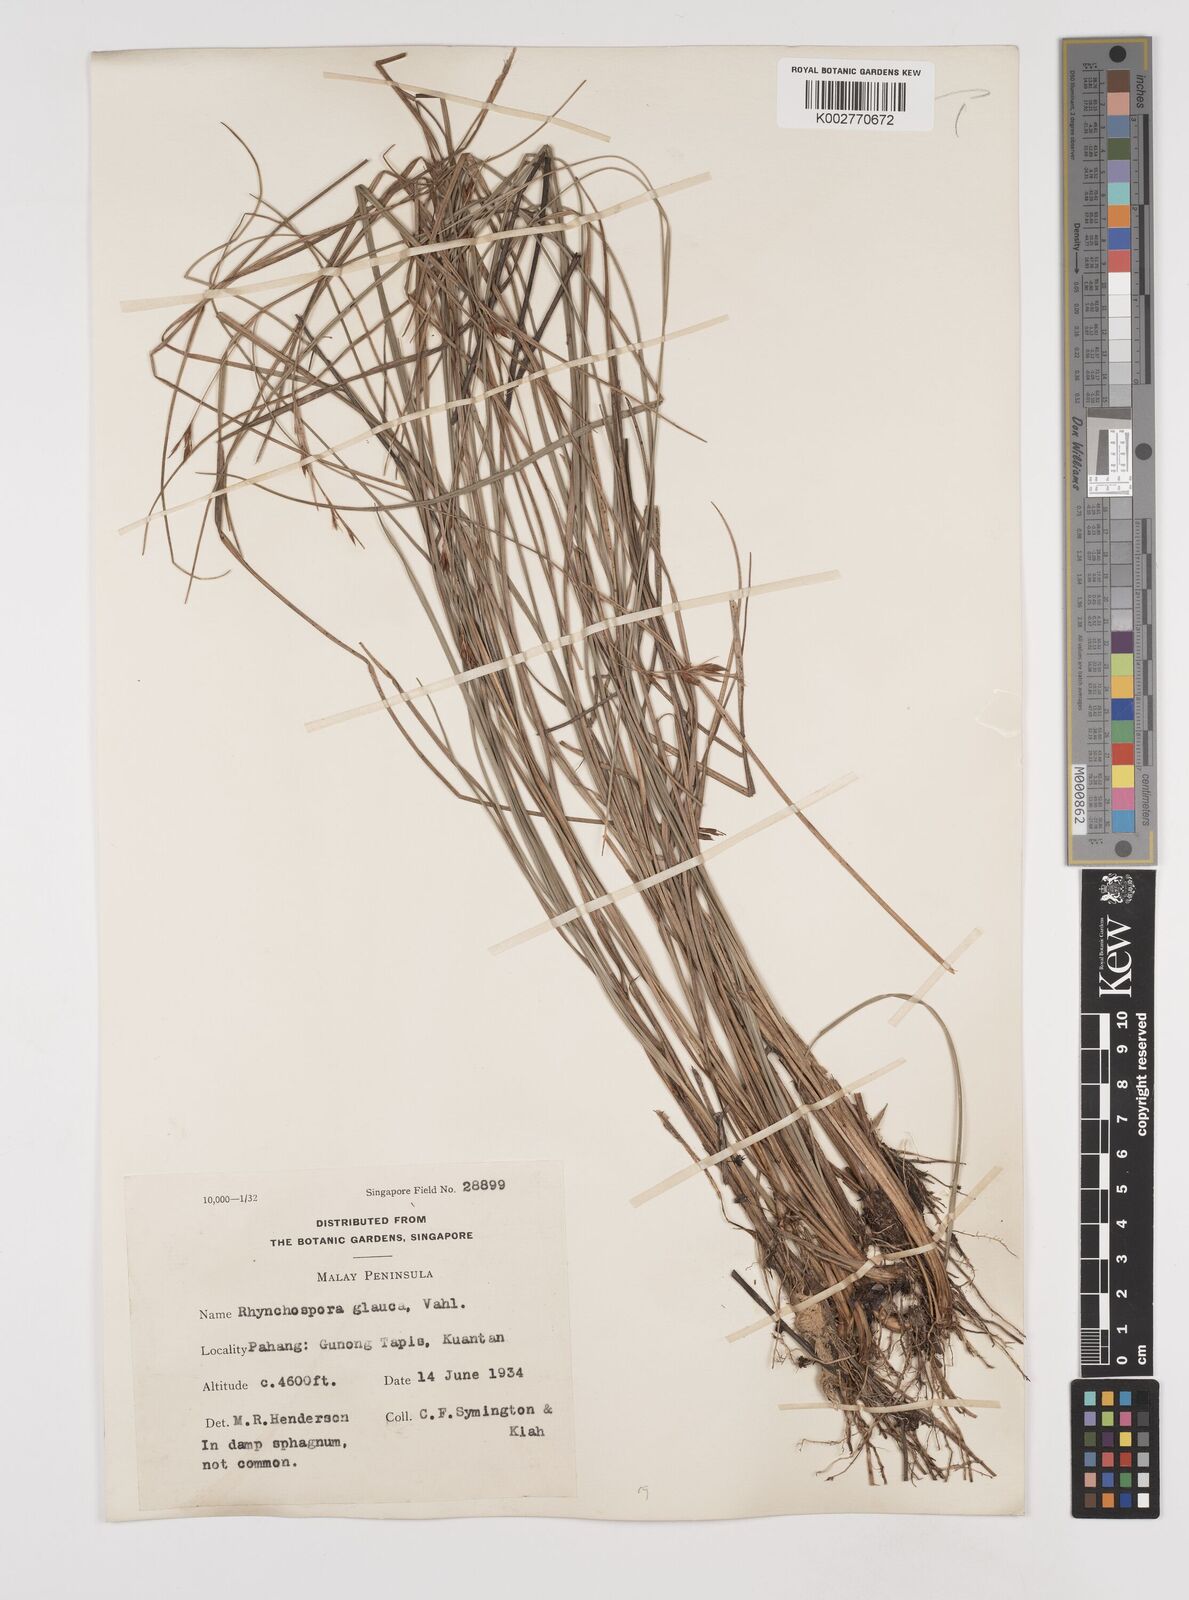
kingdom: Plantae
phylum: Tracheophyta
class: Liliopsida
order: Poales
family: Cyperaceae
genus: Rhynchospora
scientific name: Rhynchospora rugosa
